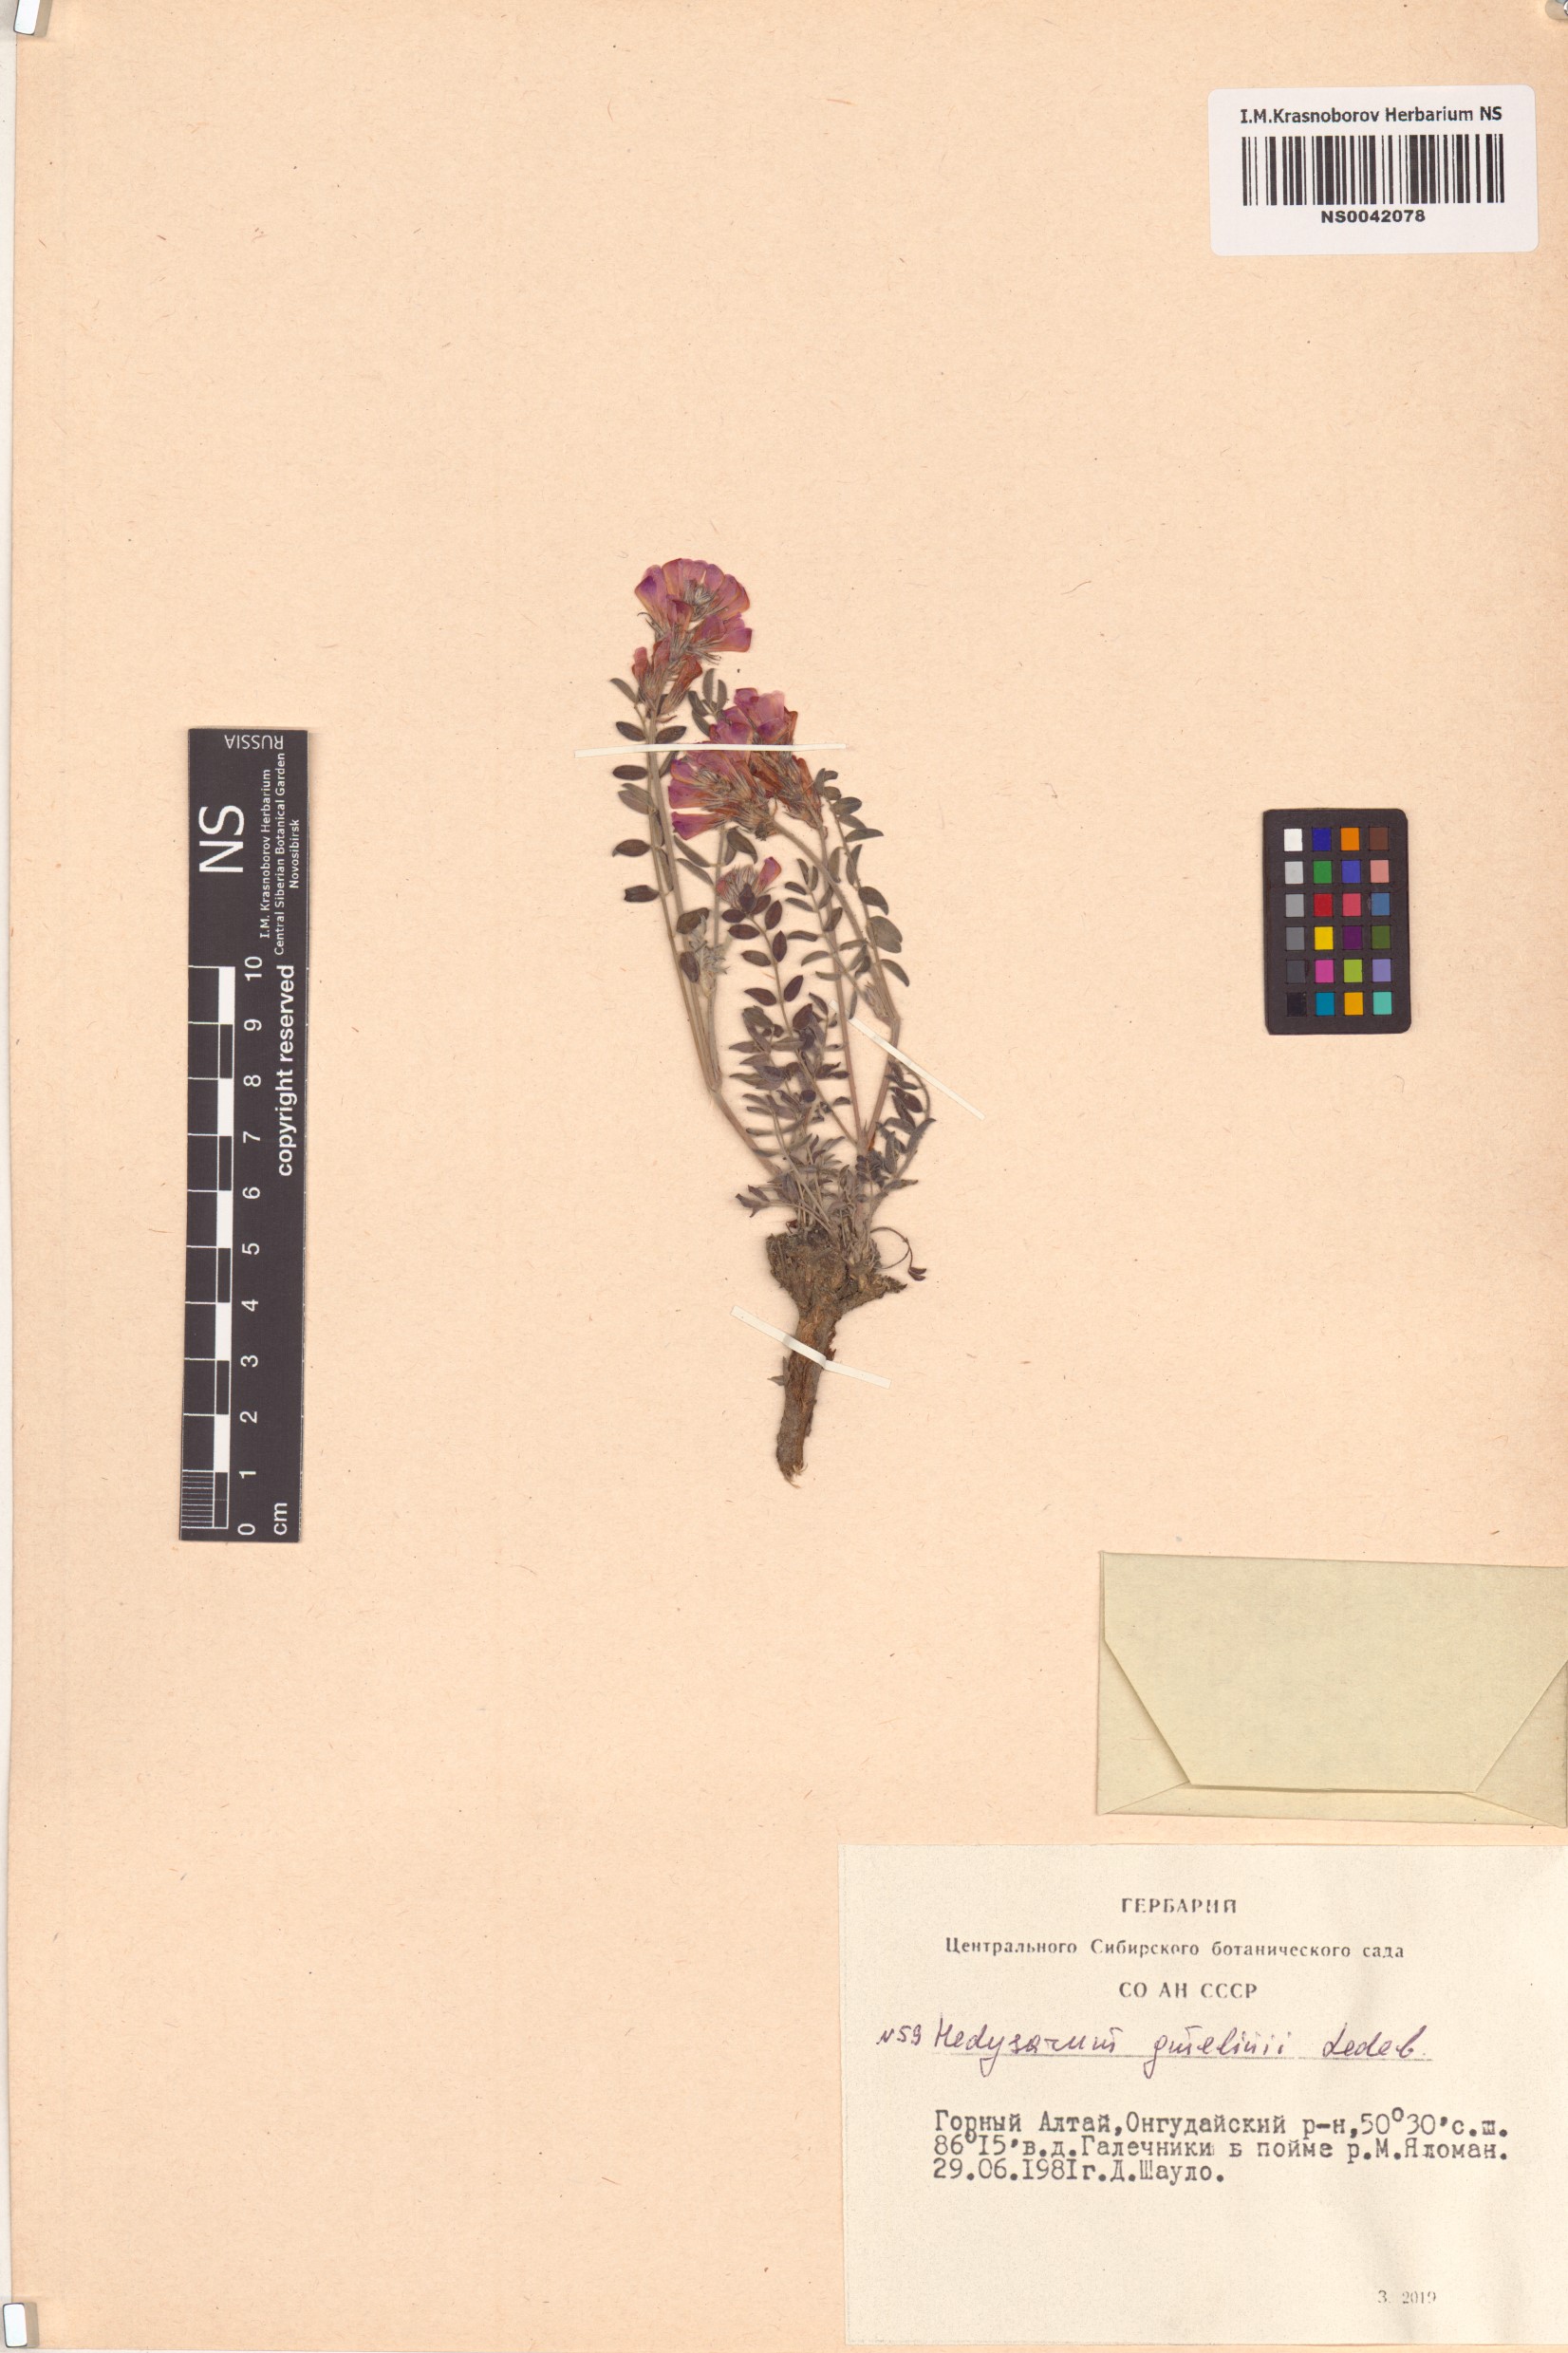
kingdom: Plantae
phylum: Tracheophyta
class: Magnoliopsida
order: Fabales
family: Fabaceae
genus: Hedysarum
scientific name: Hedysarum gmelinii
